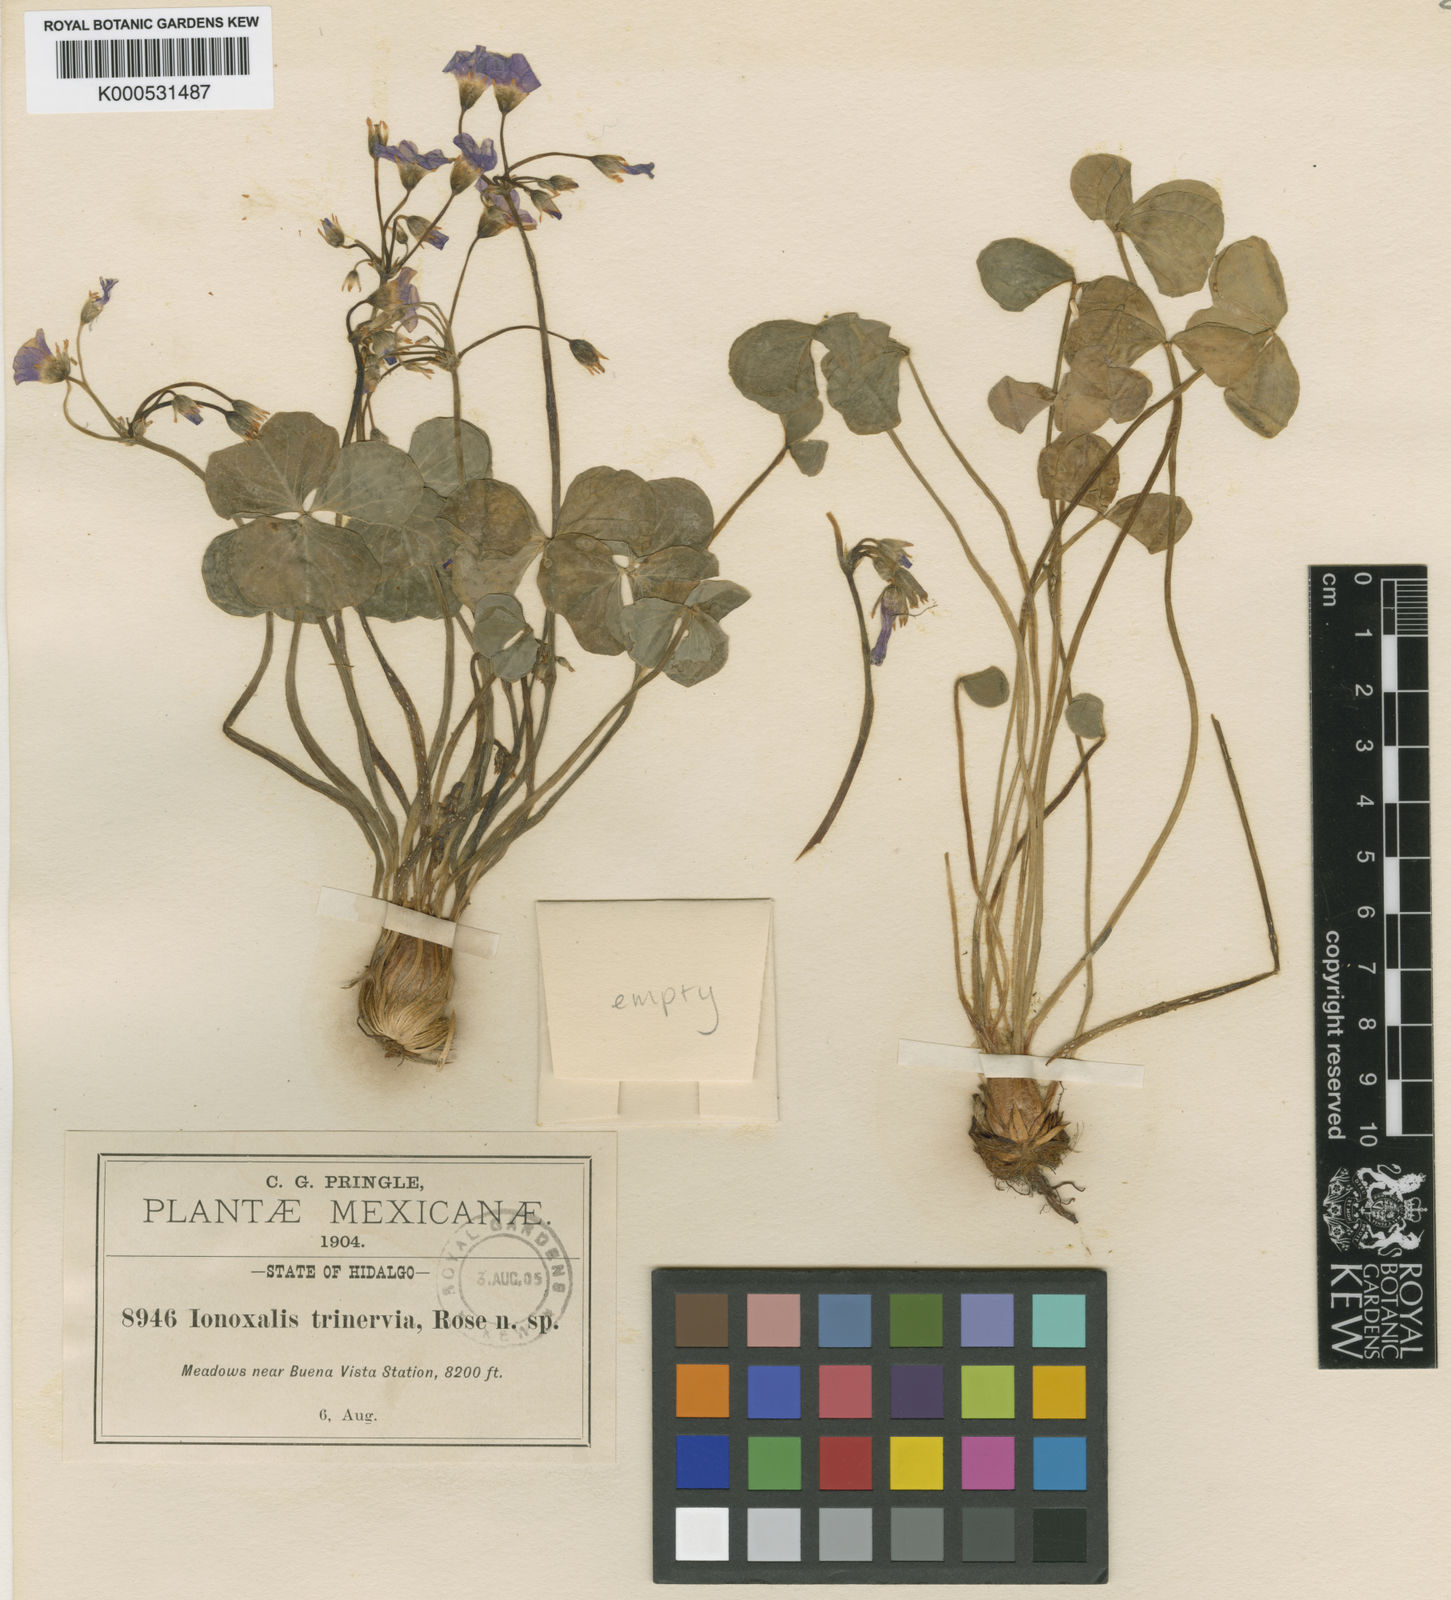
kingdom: Plantae
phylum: Tracheophyta
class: Magnoliopsida
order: Oxalidales
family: Oxalidaceae
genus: Oxalis
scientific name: Oxalis jacquiniana
